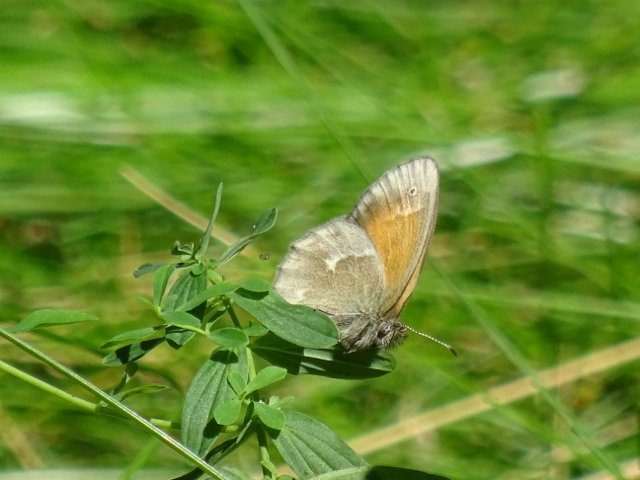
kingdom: Animalia
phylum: Arthropoda
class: Insecta
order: Lepidoptera
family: Nymphalidae
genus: Coenonympha
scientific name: Coenonympha tullia
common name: Large Heath
